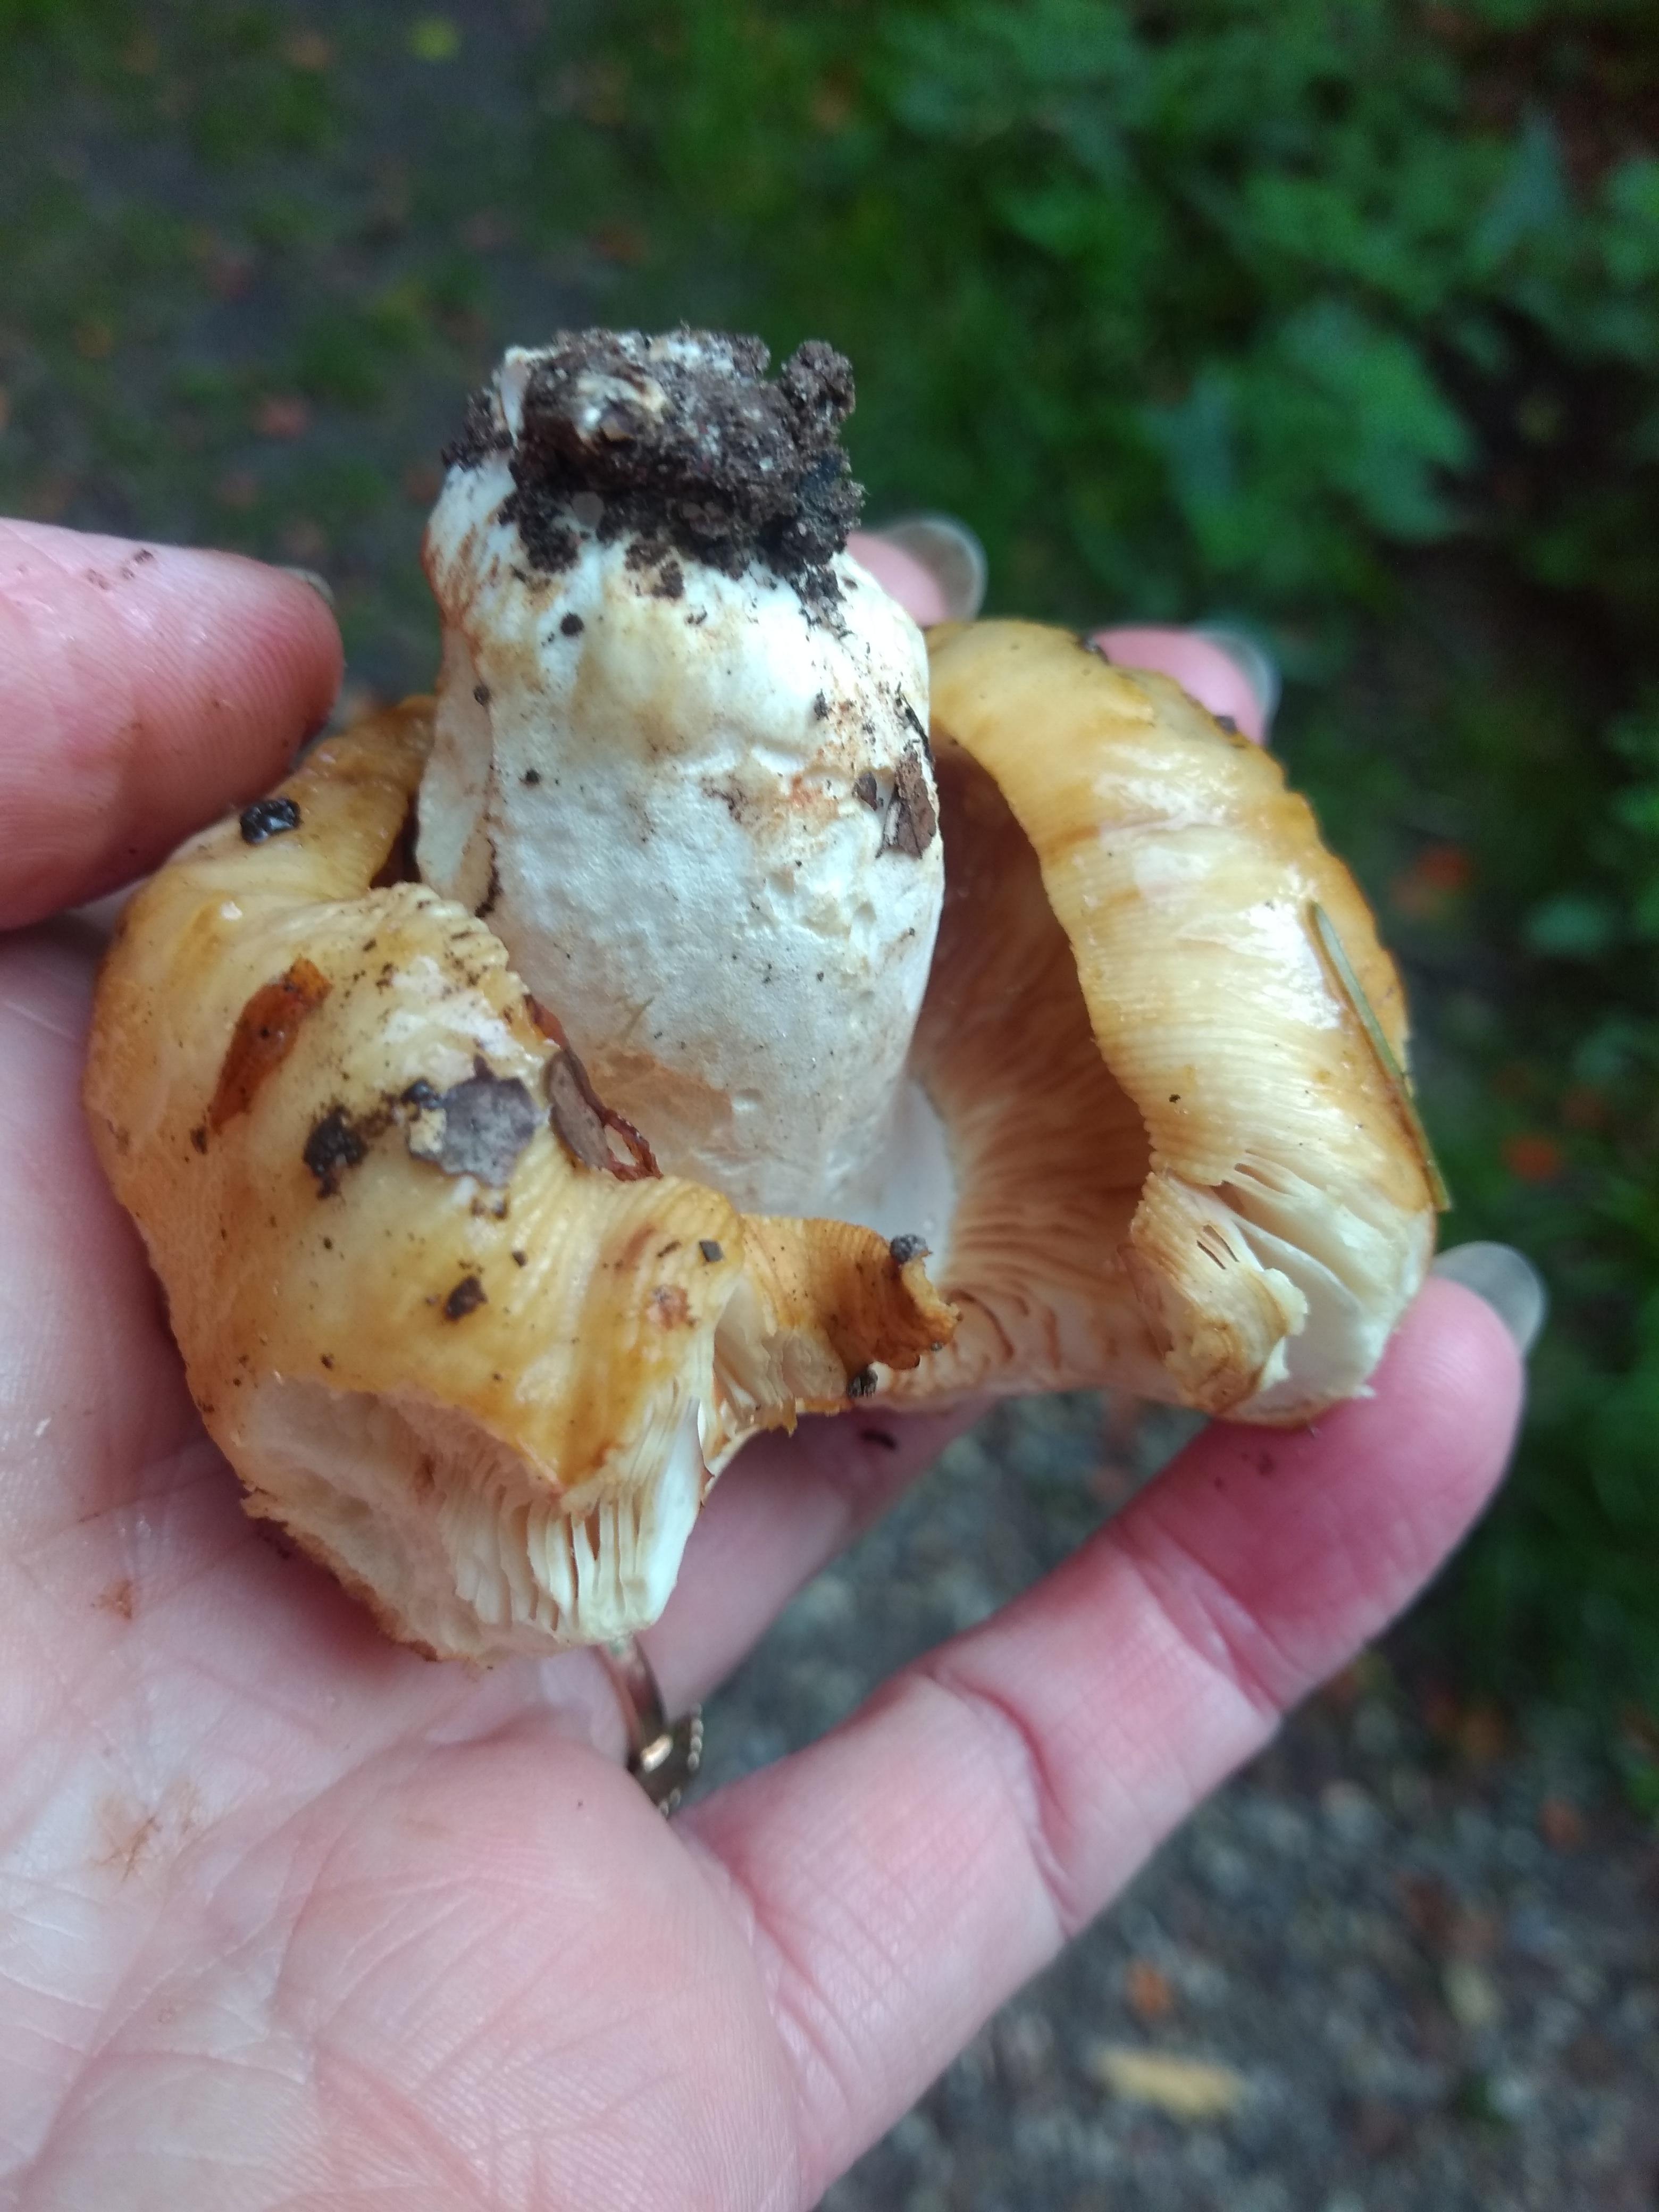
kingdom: Fungi
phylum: Basidiomycota
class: Agaricomycetes
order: Russulales
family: Russulaceae
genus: Russula
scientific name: Russula foetens
